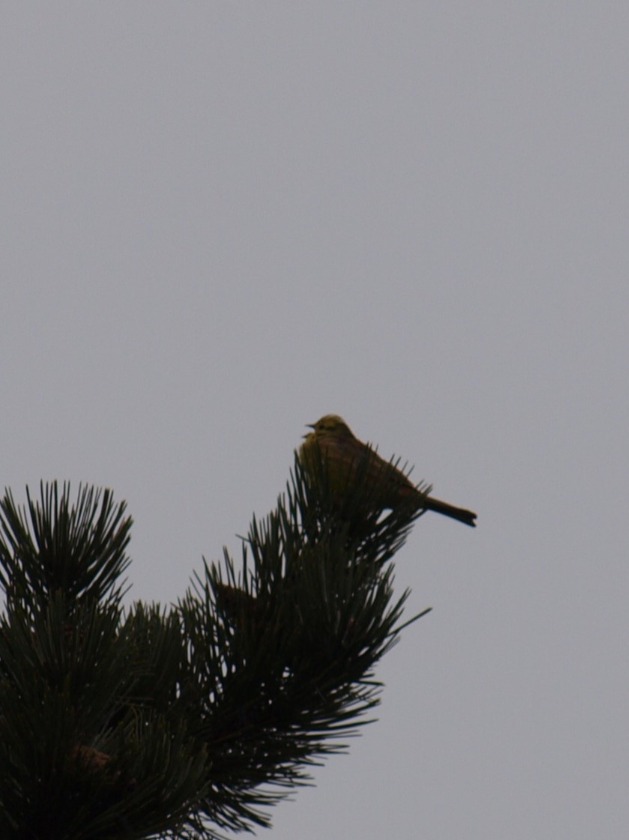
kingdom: Animalia
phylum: Chordata
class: Aves
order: Passeriformes
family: Emberizidae
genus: Emberiza
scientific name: Emberiza citrinella
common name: Gulspurv
